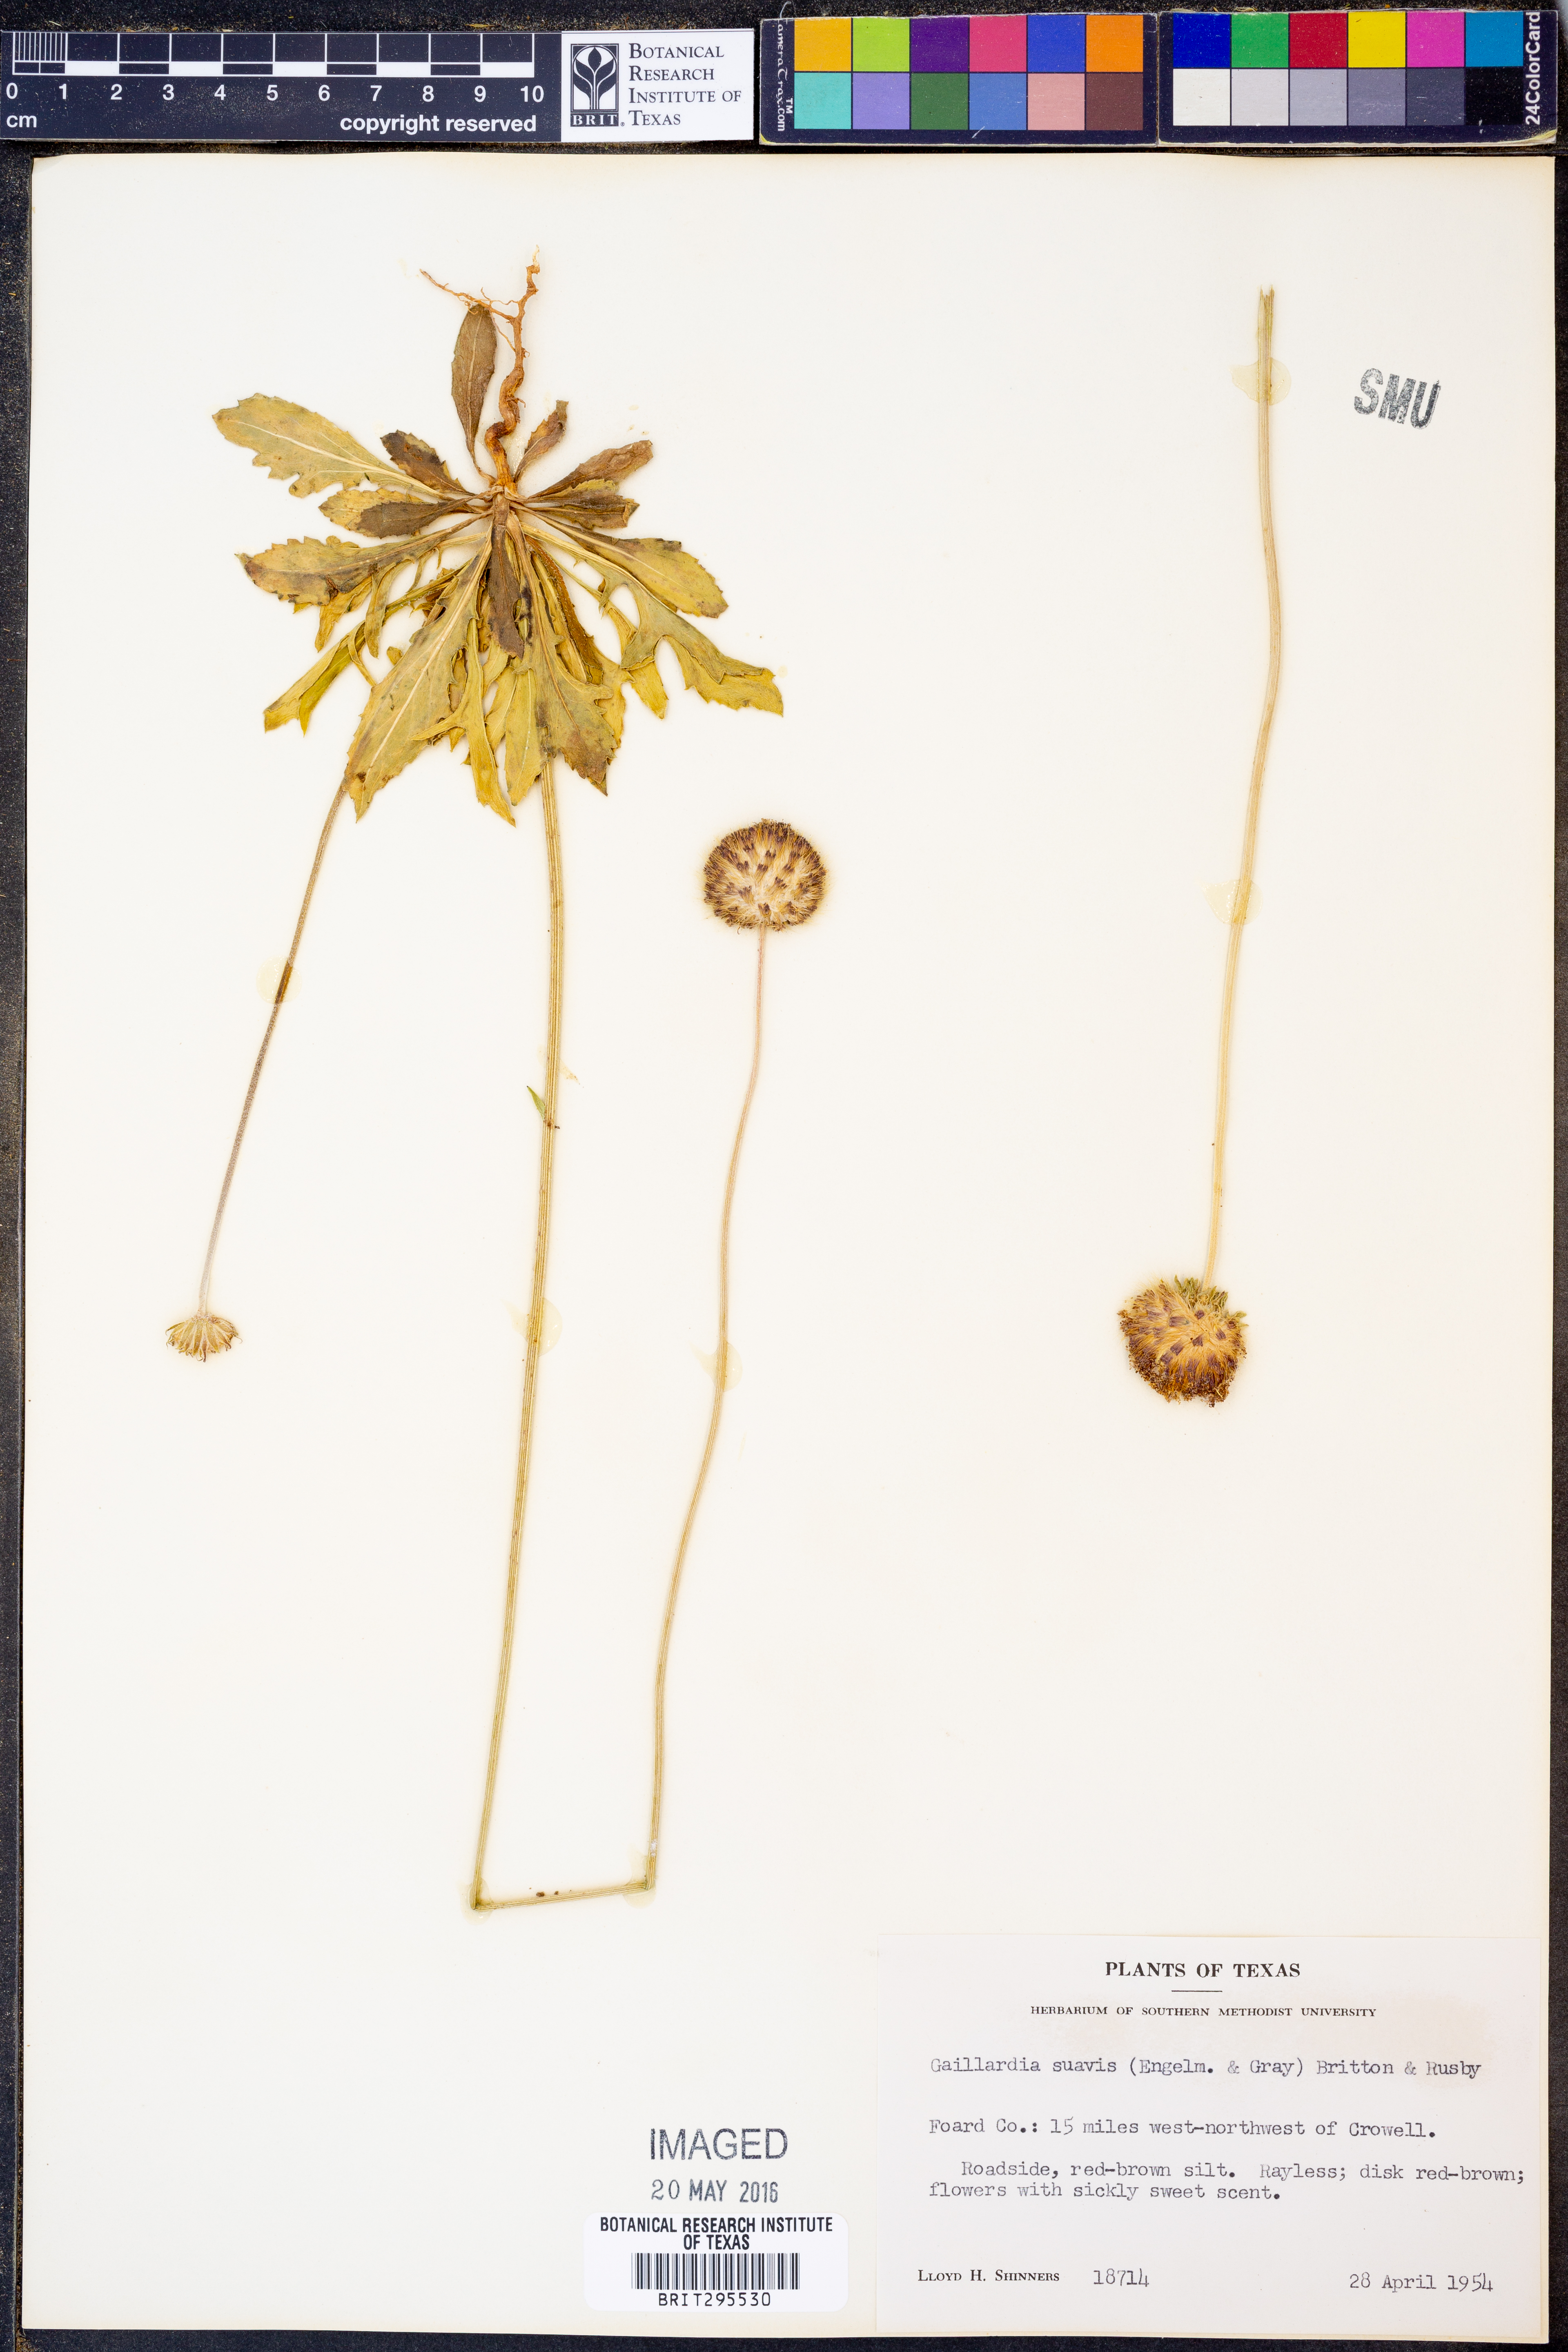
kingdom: Plantae
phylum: Tracheophyta
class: Magnoliopsida
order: Asterales
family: Asteraceae
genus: Gaillardia
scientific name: Gaillardia suavis
